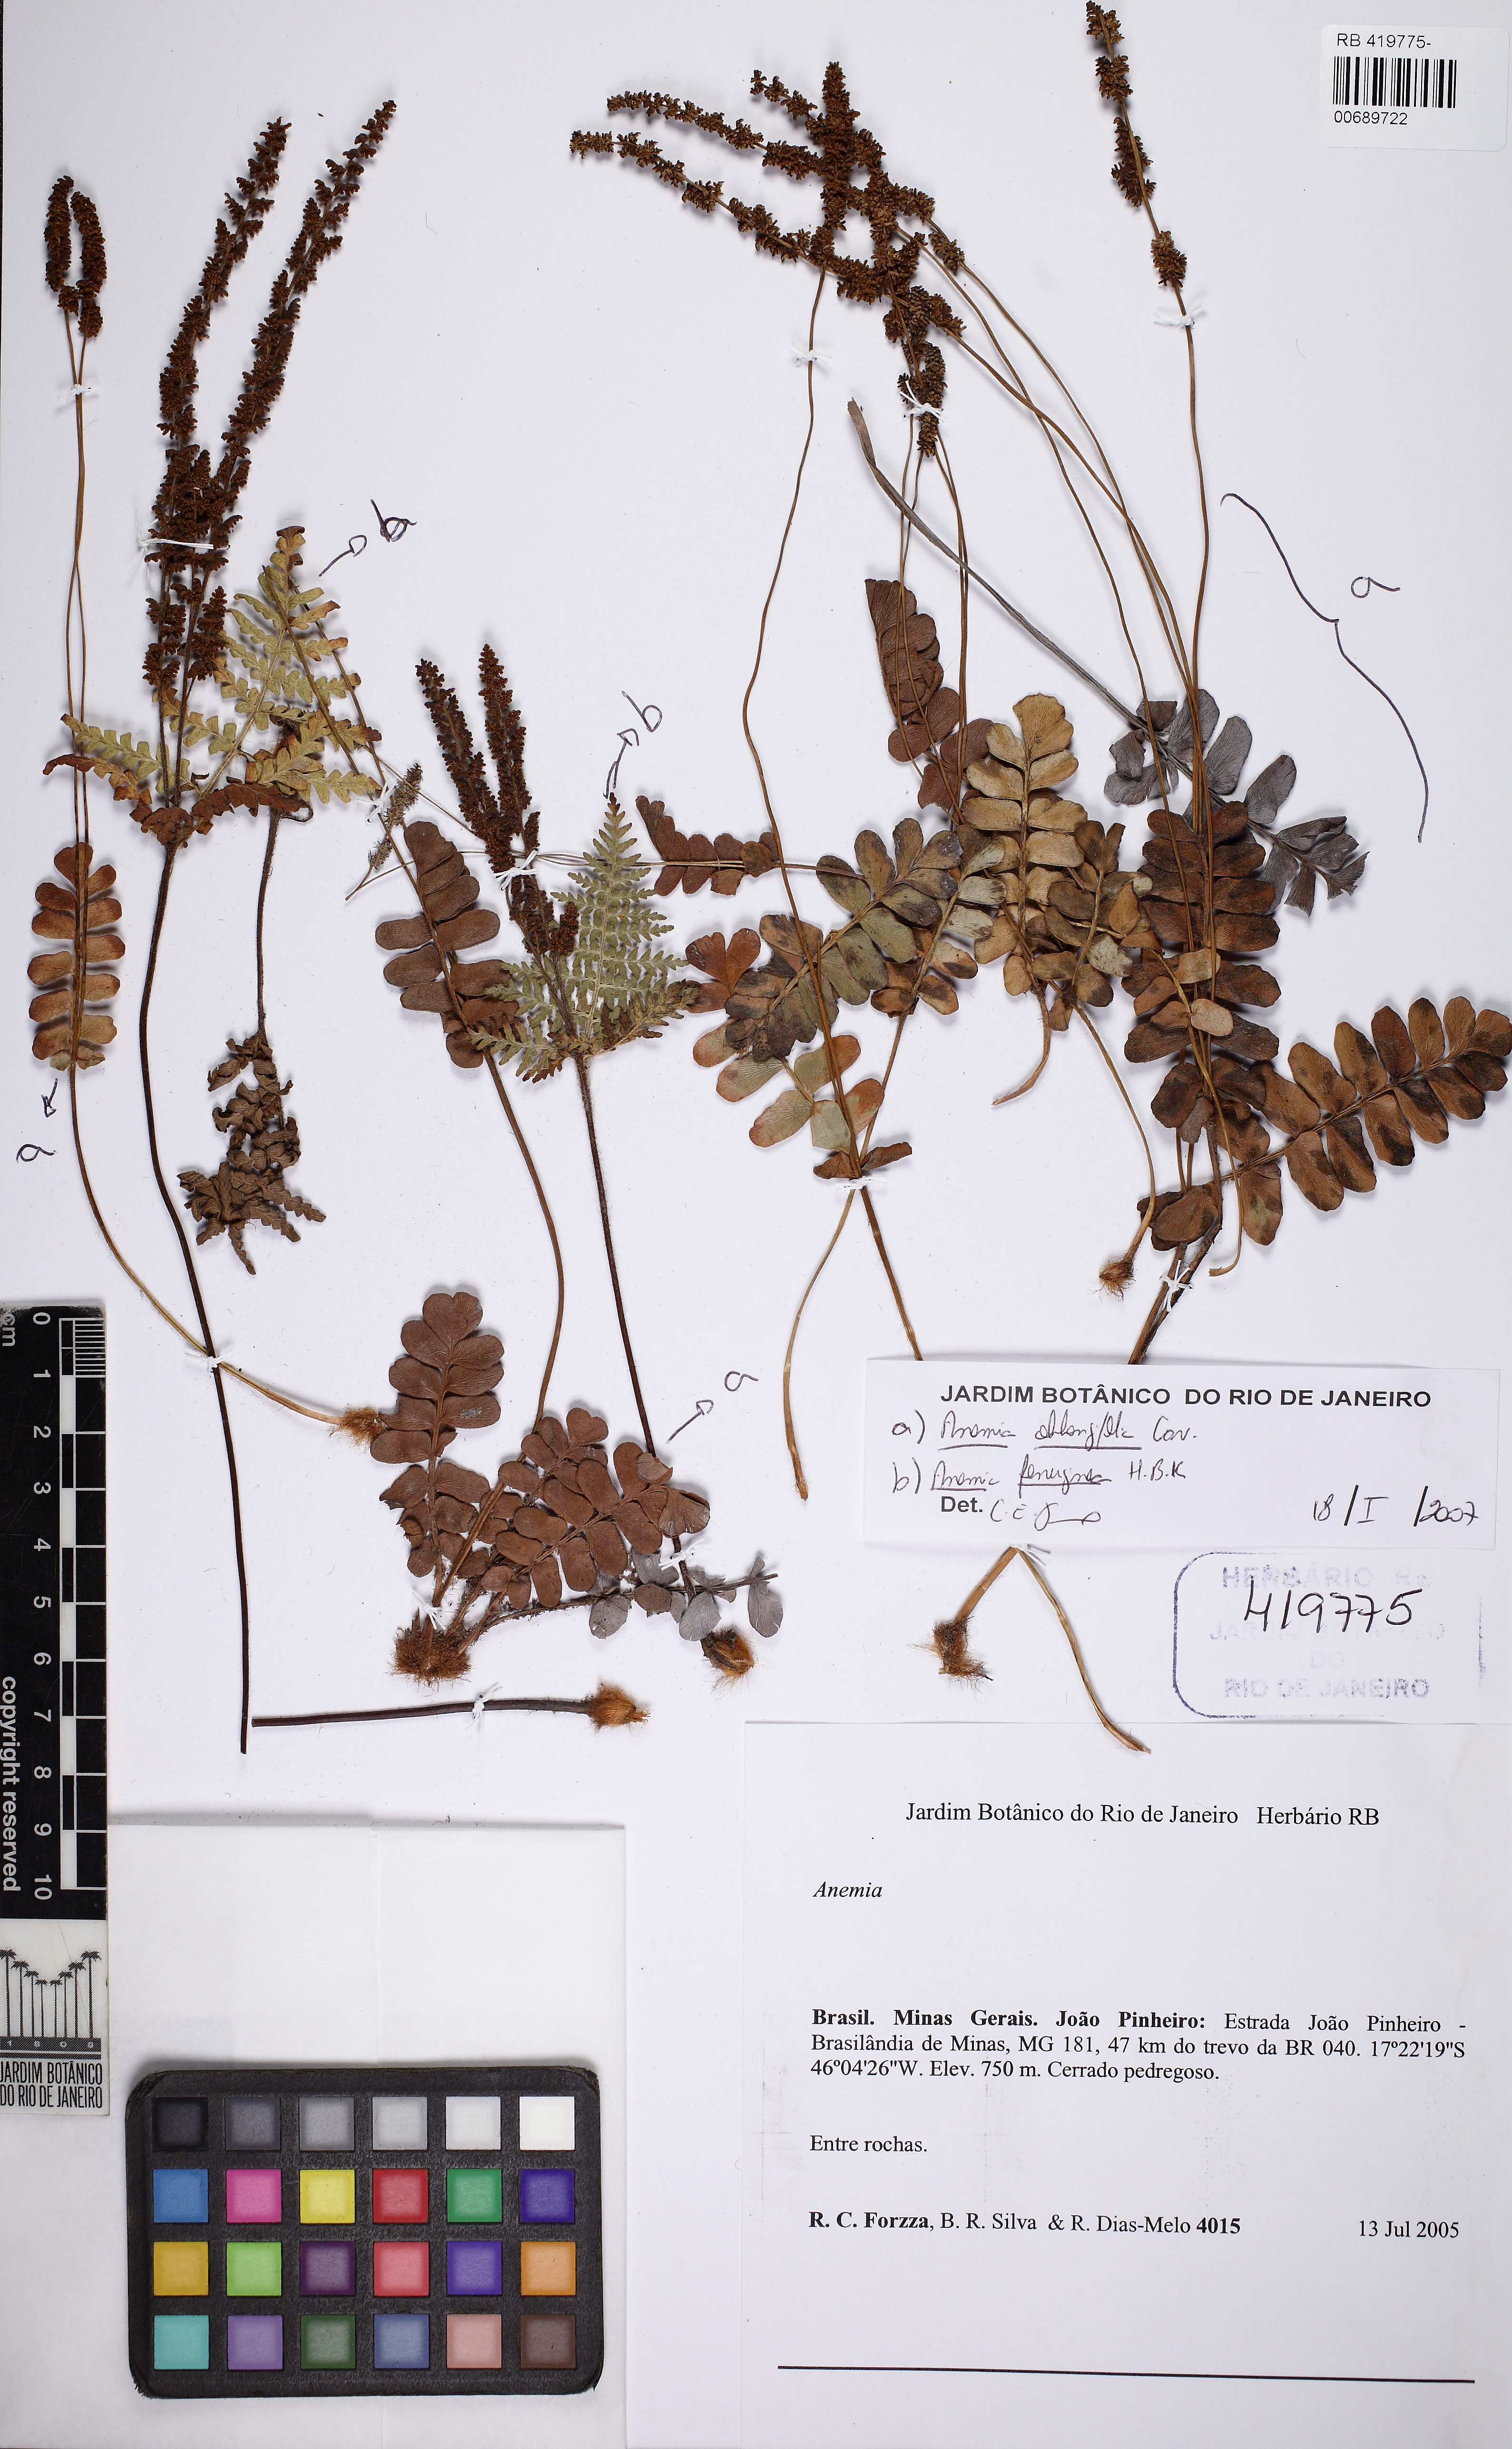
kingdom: Plantae
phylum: Tracheophyta
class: Polypodiopsida
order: Schizaeales
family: Anemiaceae
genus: Anemia
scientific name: Anemia oblongifolia
